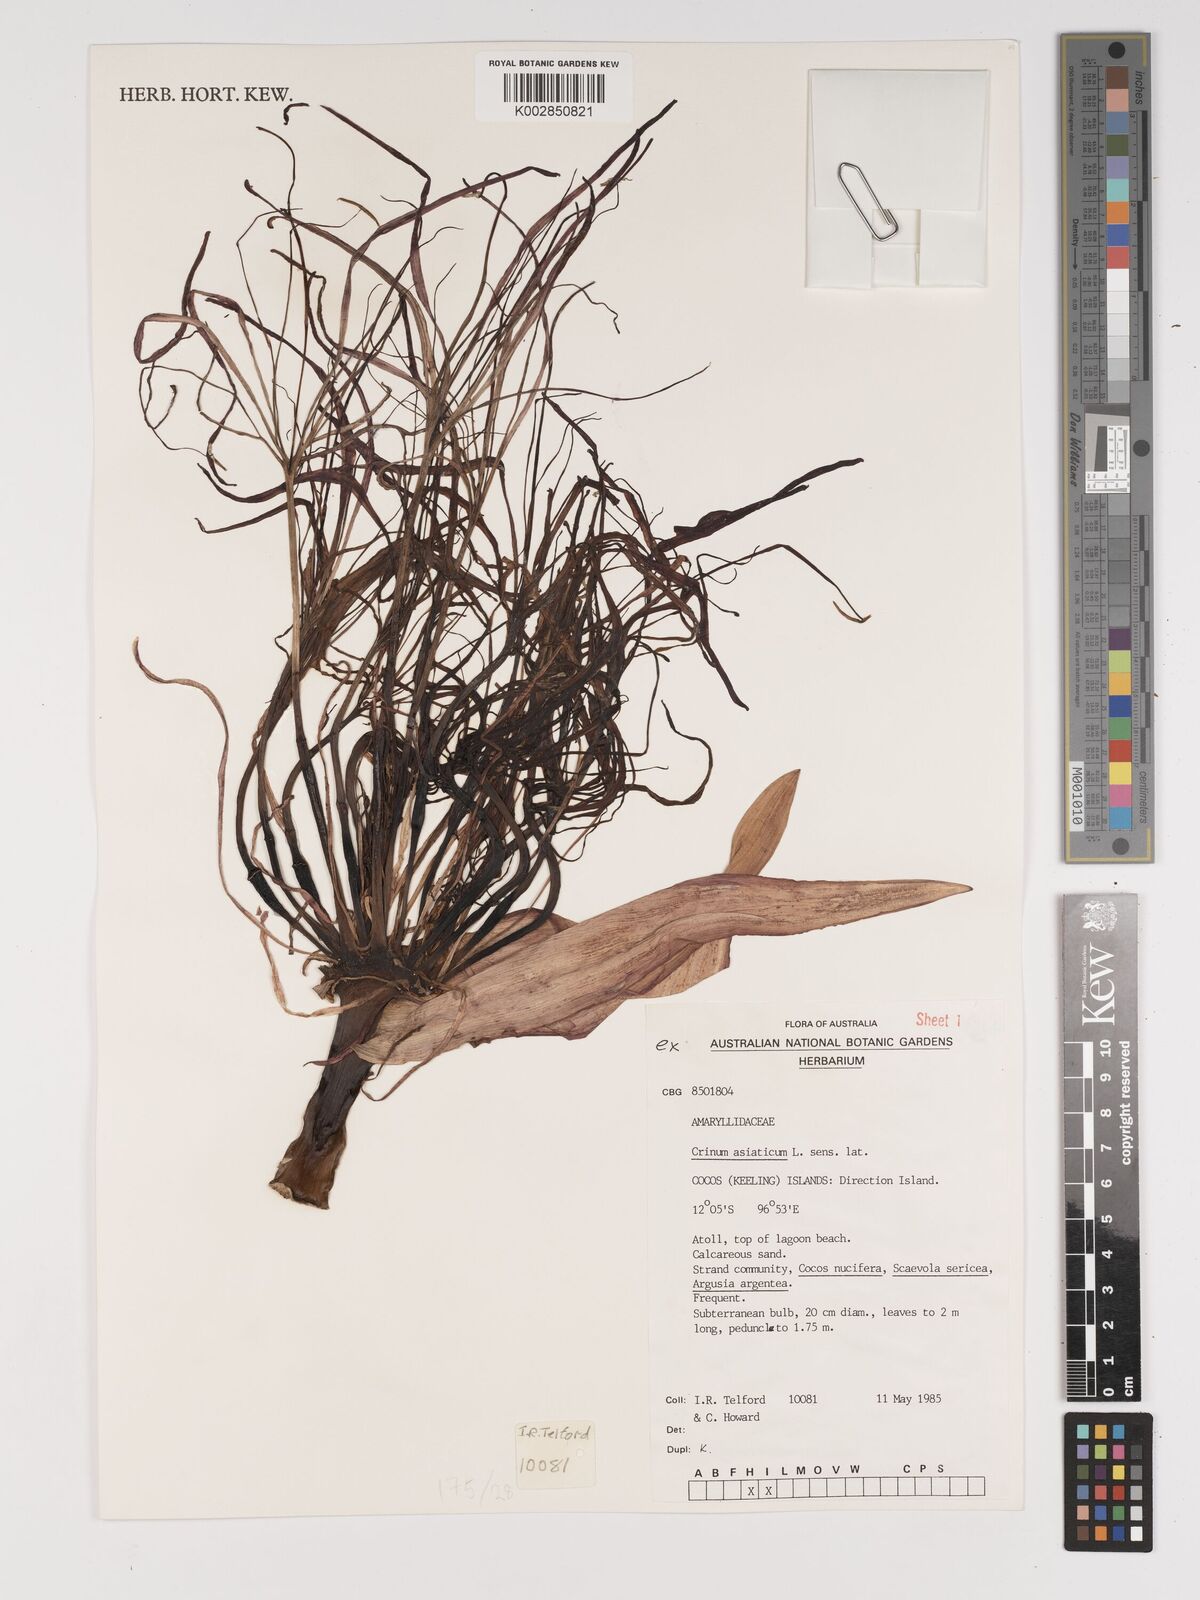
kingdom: Plantae
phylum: Tracheophyta
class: Liliopsida
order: Asparagales
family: Amaryllidaceae
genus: Crinum
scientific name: Crinum asiaticum
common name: Poisonbulb
